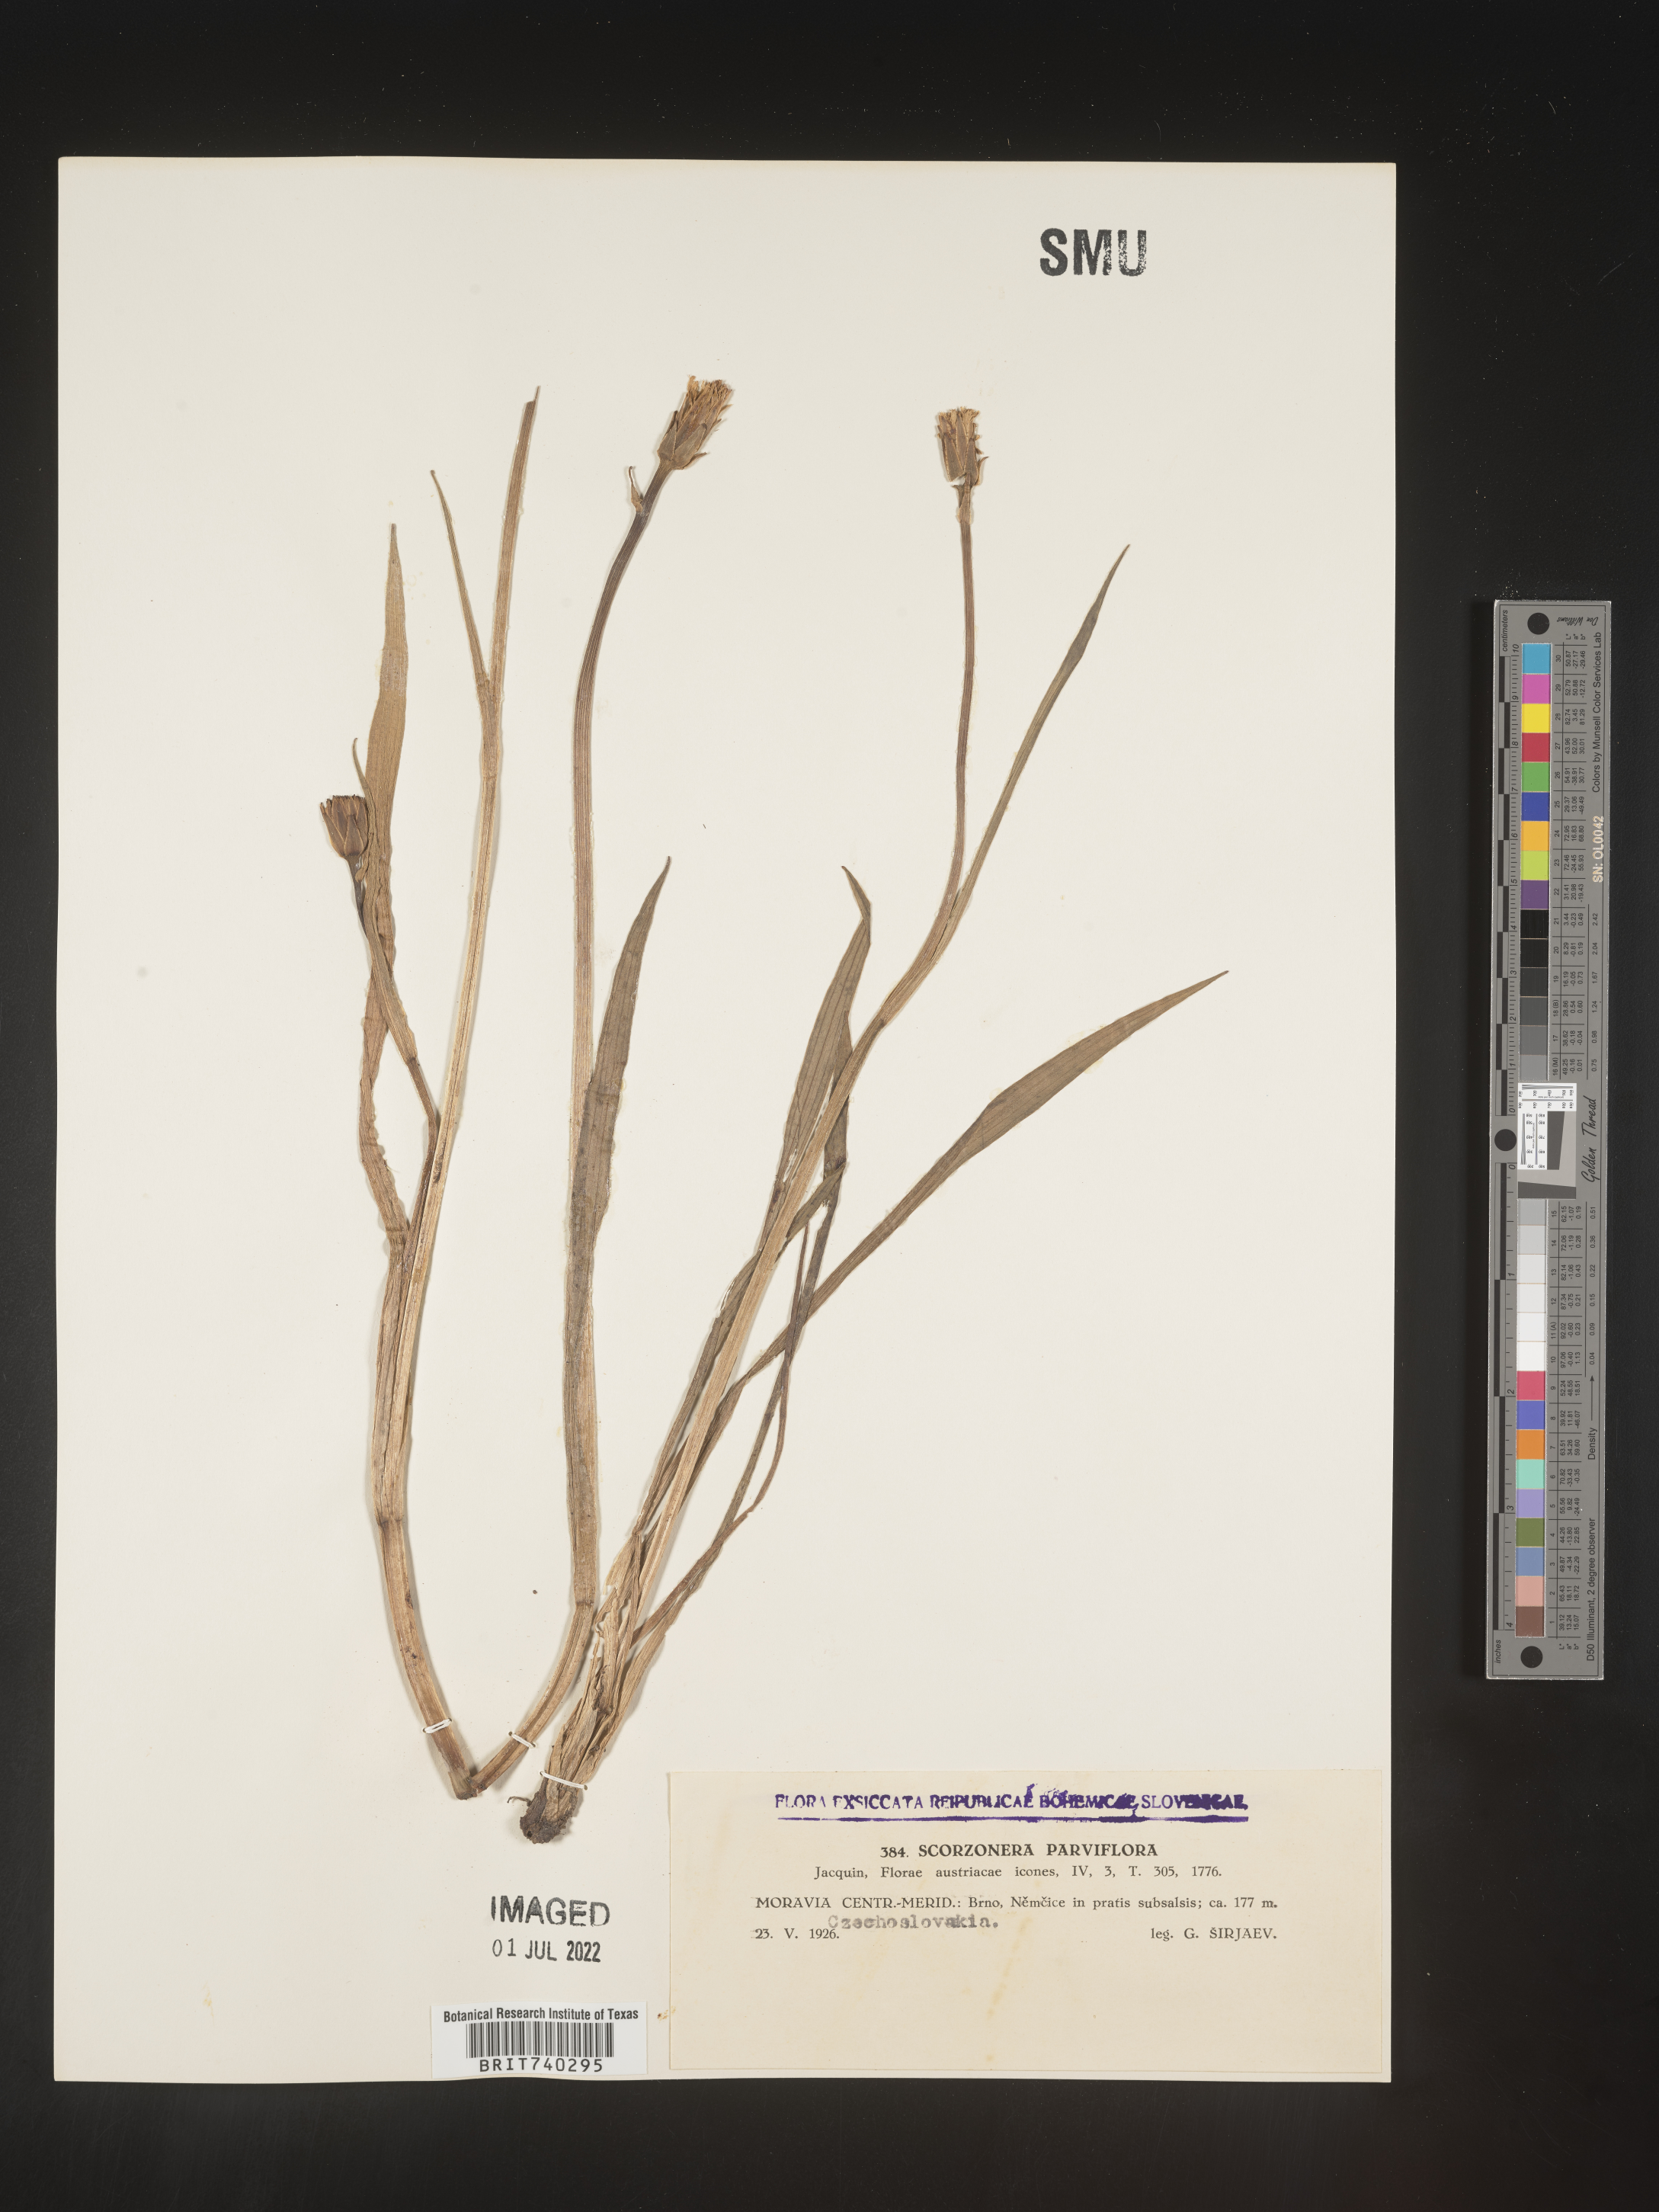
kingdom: Plantae
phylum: Tracheophyta
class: Magnoliopsida
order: Asterales
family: Asteraceae
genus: Scorzonera
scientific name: Scorzonera
